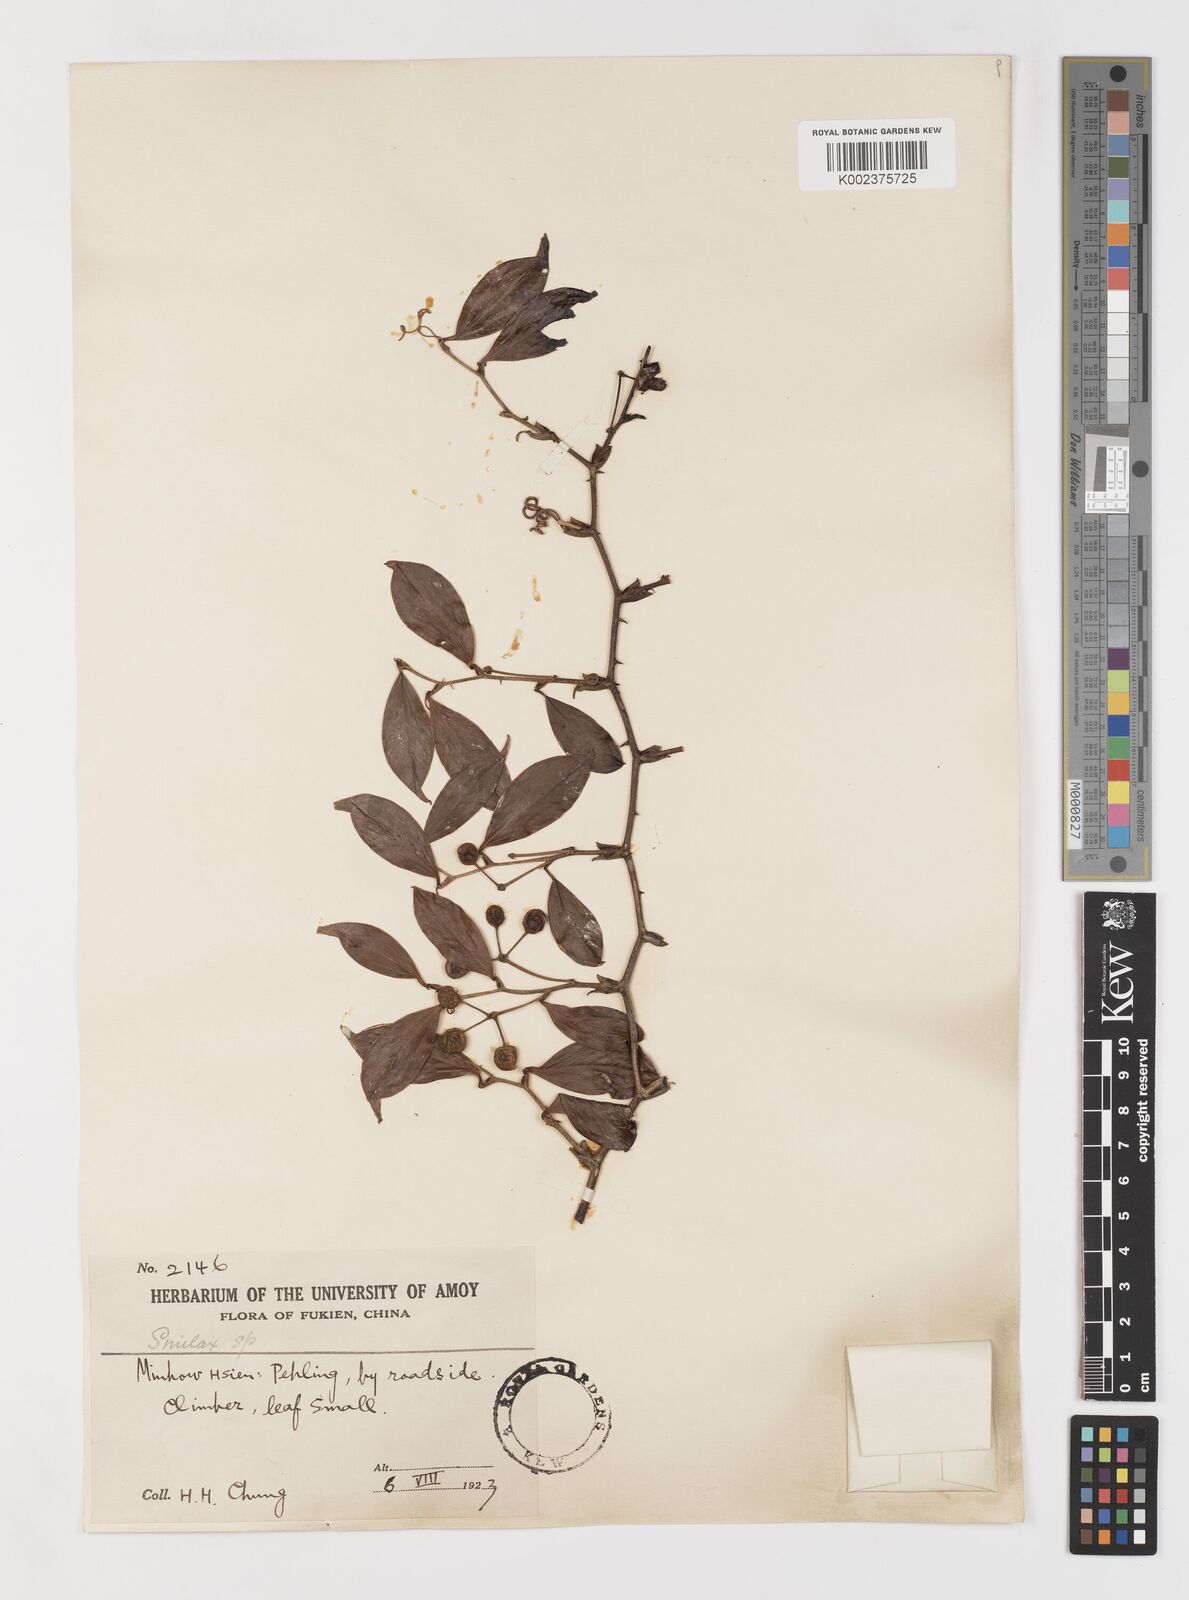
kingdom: Plantae
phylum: Tracheophyta
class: Liliopsida
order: Liliales
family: Smilacaceae
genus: Smilax
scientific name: Smilax
